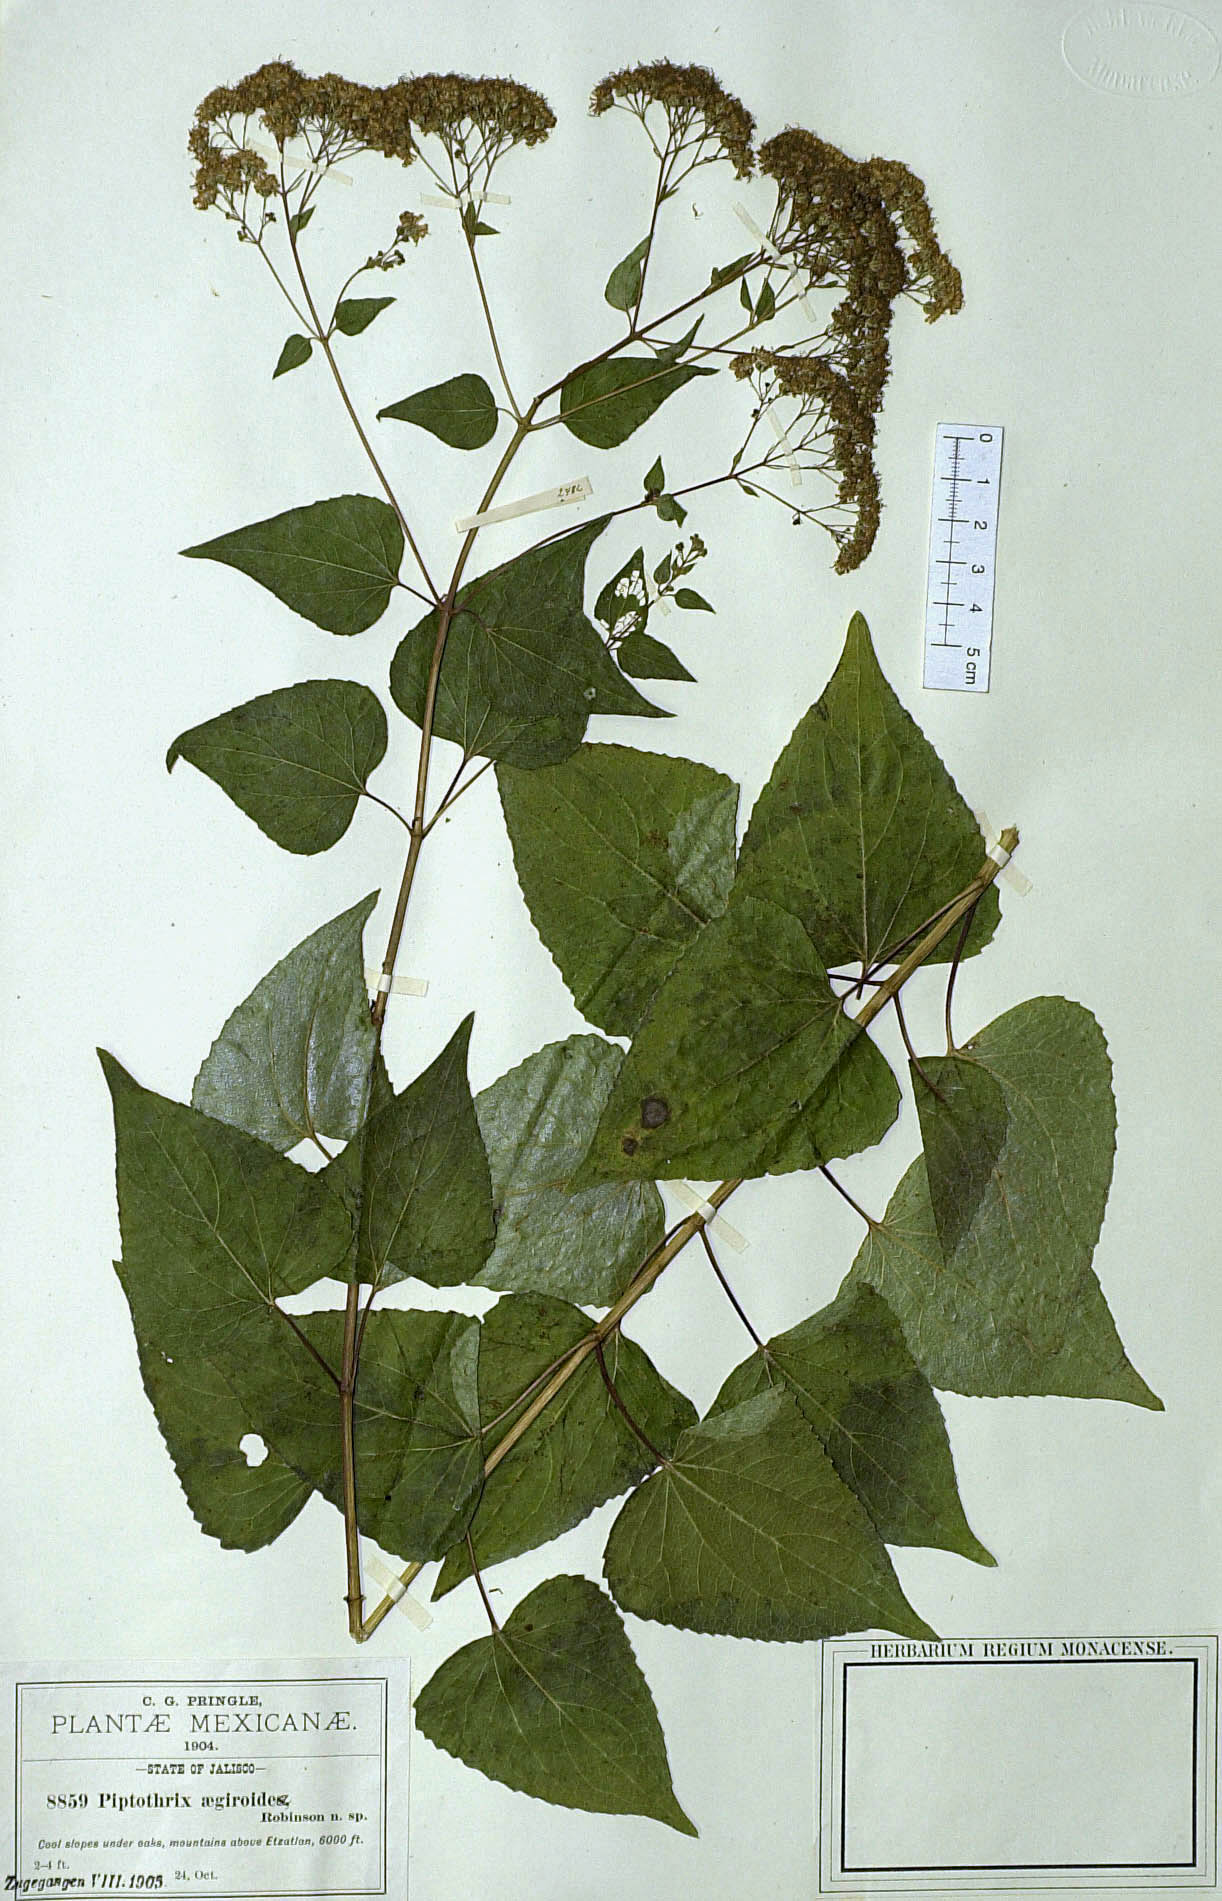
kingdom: Plantae
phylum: Tracheophyta
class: Magnoliopsida
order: Asterales
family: Asteraceae
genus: Jaliscoa
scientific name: Jaliscoa goldmanii
